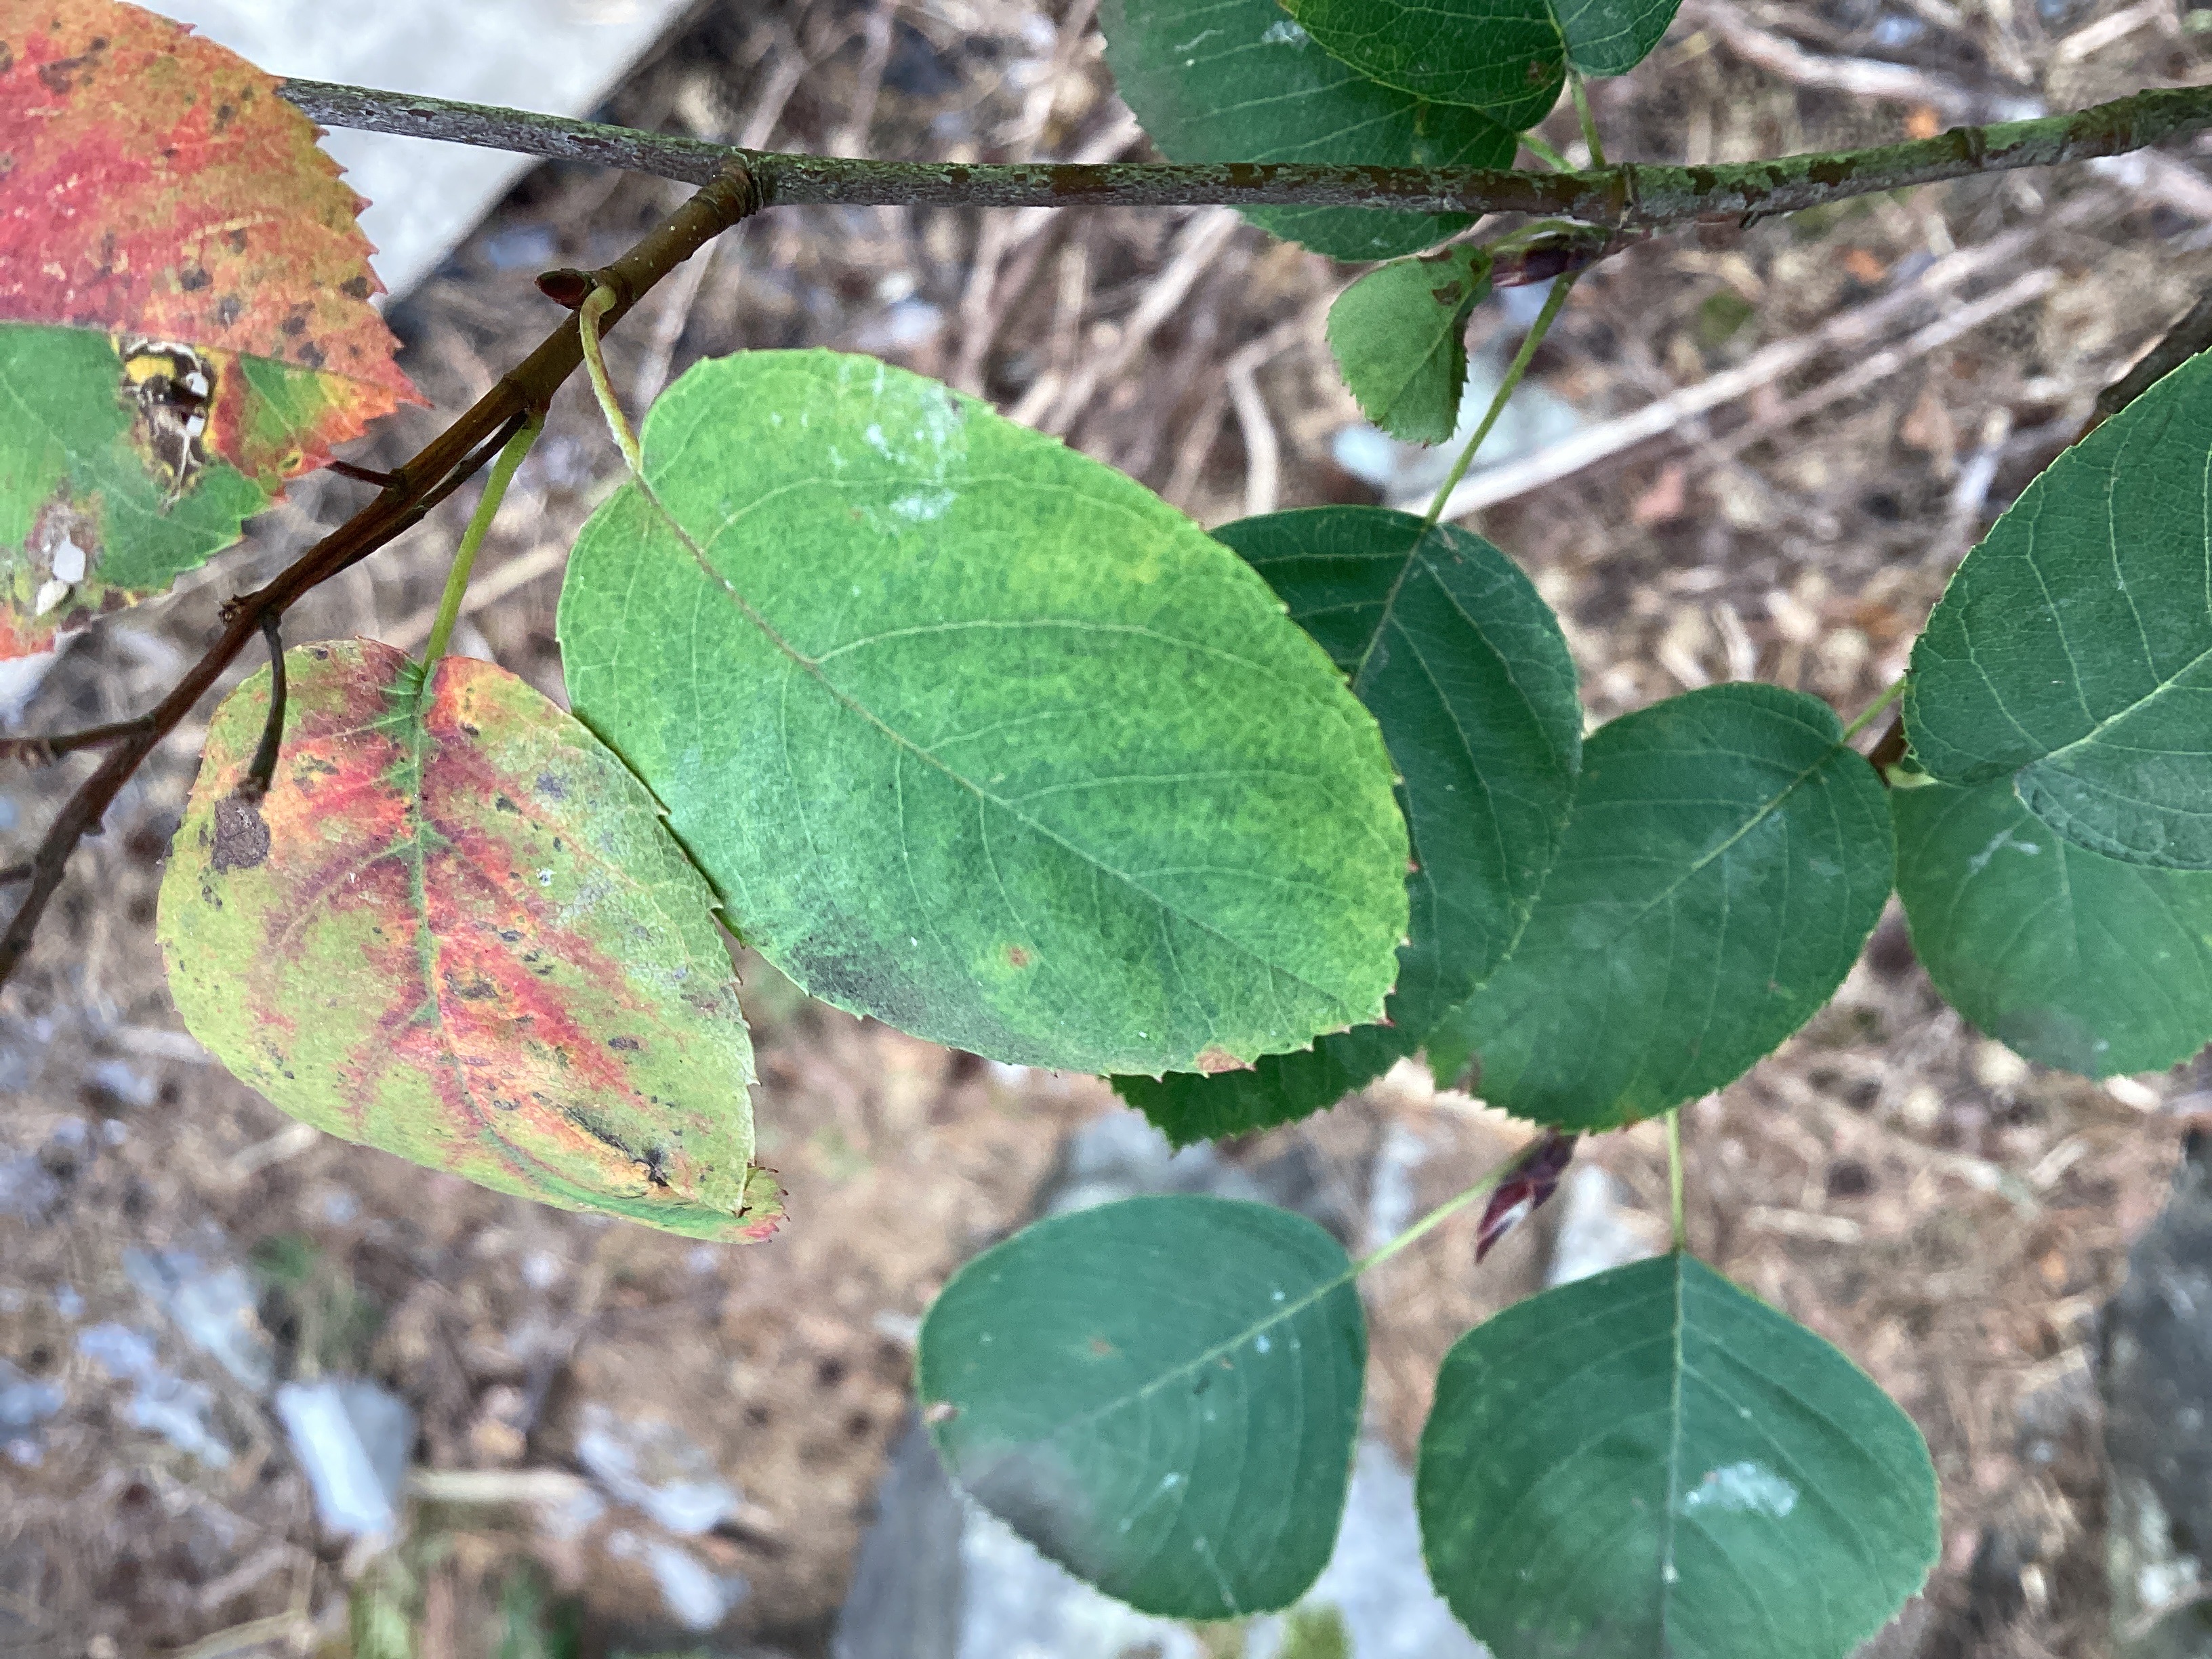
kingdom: Plantae
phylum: Tracheophyta
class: Magnoliopsida
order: Rosales
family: Rosaceae
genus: Amelanchier
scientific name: Amelanchier humilis
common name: blåhegg
